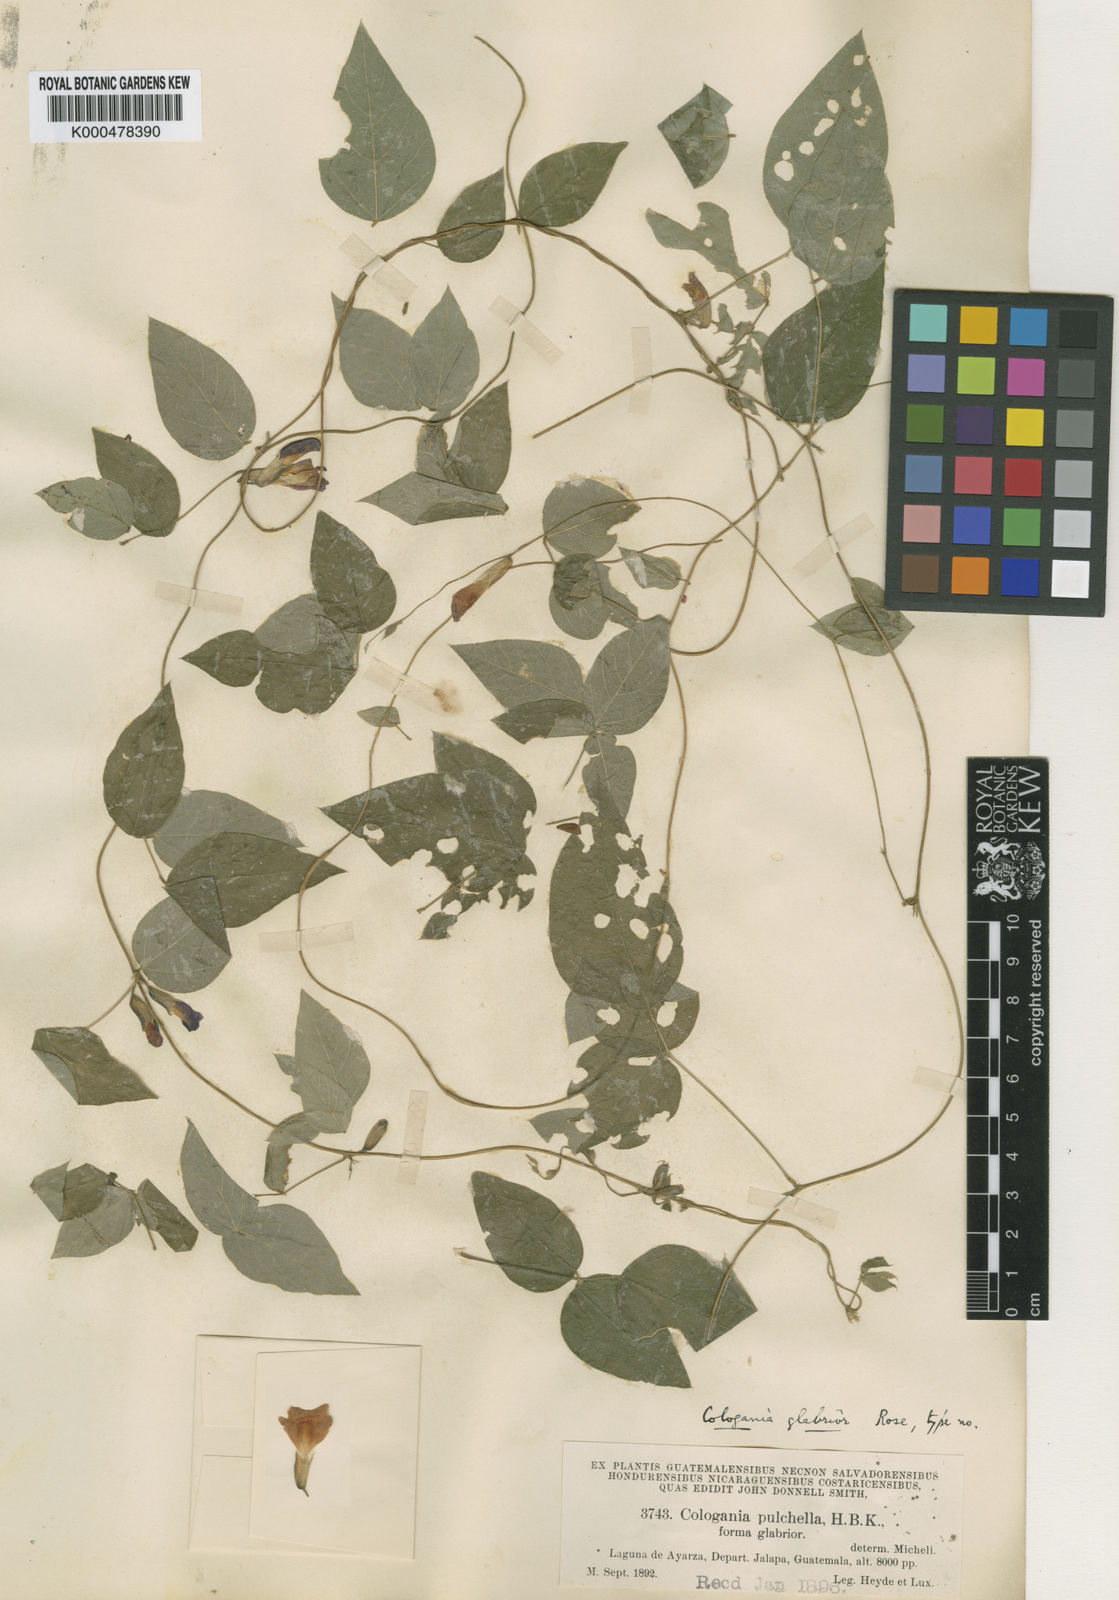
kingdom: Plantae
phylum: Tracheophyta
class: Magnoliopsida
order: Fabales
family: Fabaceae
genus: Cologania
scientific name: Cologania broussonetii
